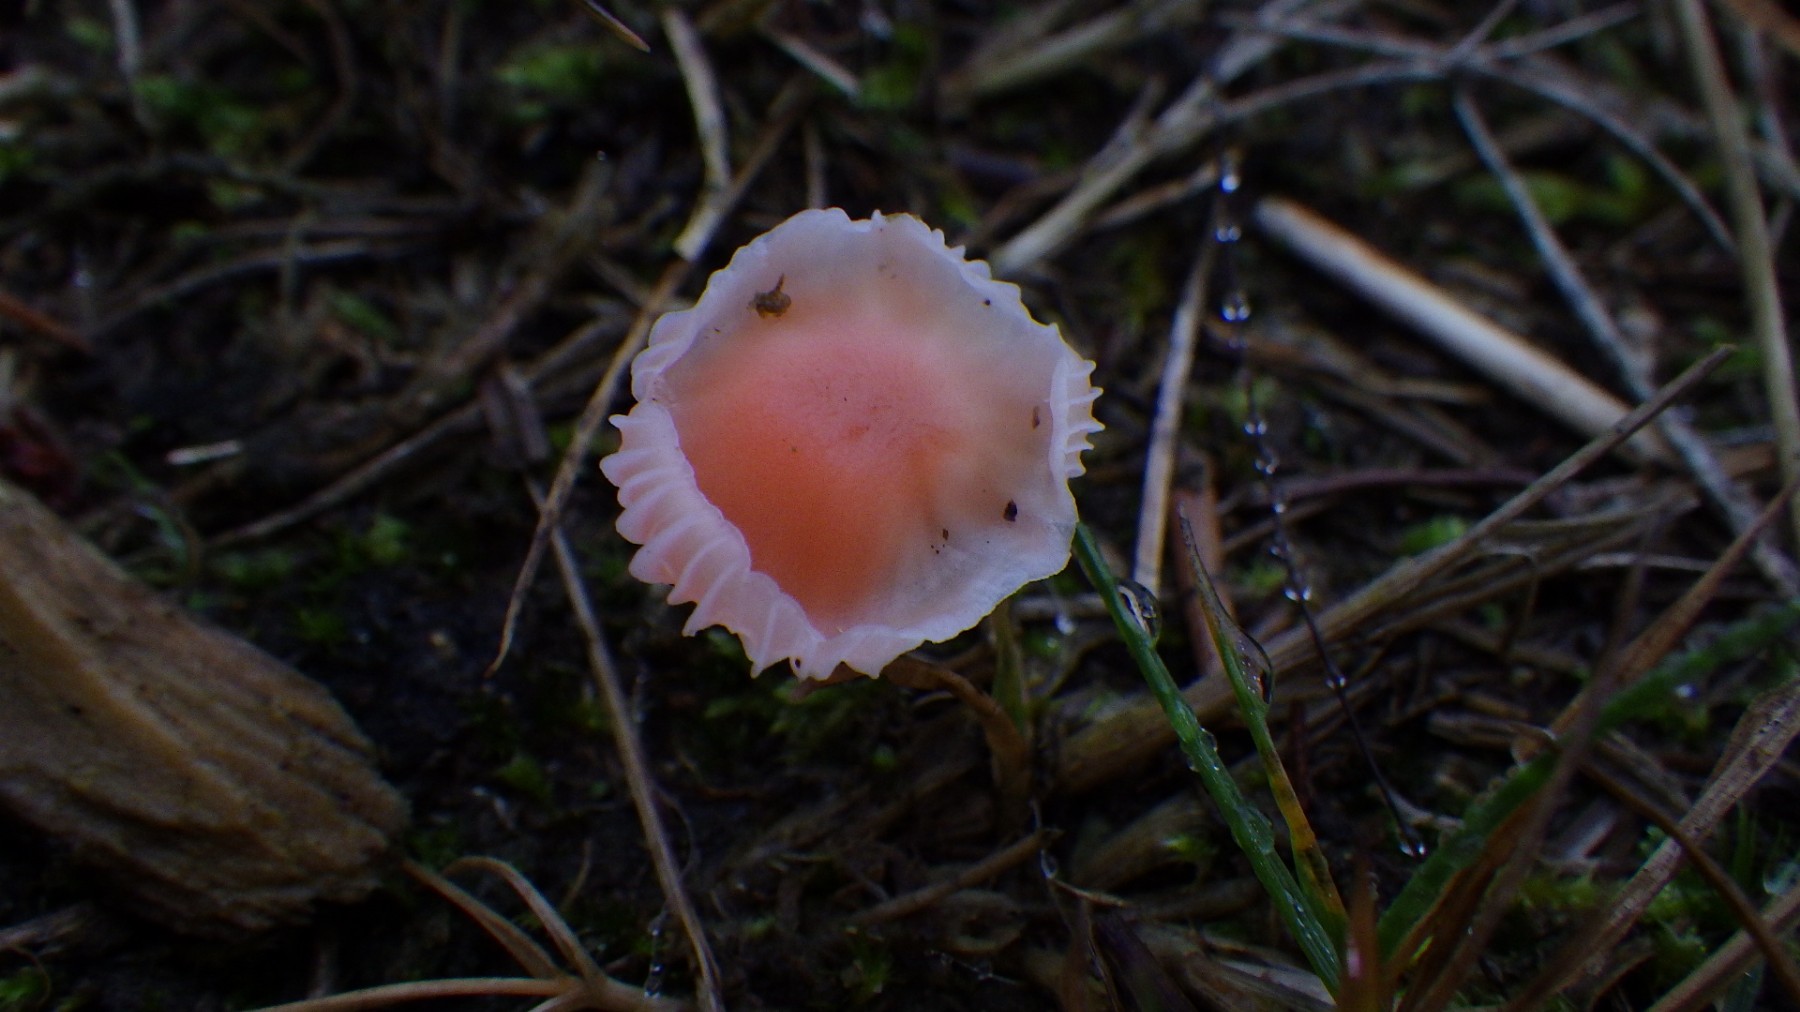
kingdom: Fungi
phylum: Basidiomycota
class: Agaricomycetes
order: Agaricales
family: Mycenaceae
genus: Atheniella
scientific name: Atheniella adonis
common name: rønnerød huesvamp
